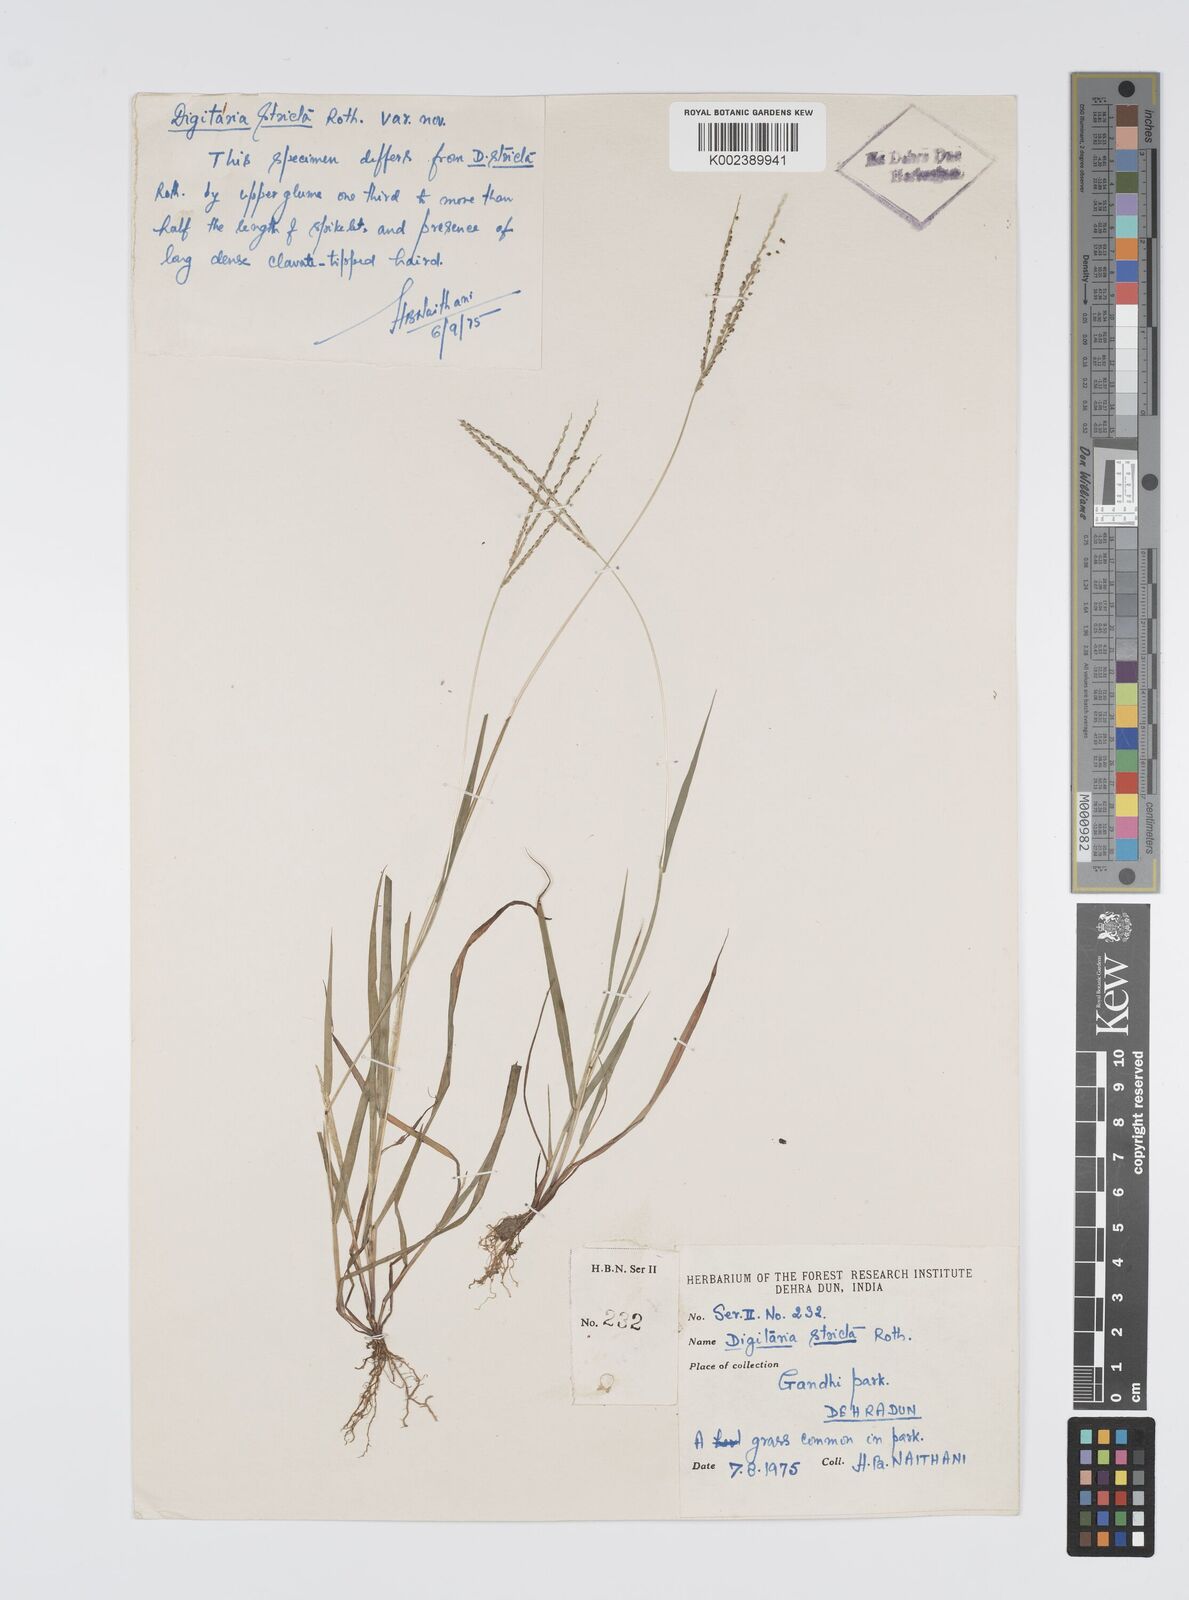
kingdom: Plantae
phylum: Tracheophyta
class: Liliopsida
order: Poales
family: Poaceae
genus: Digitaria
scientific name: Digitaria stricta
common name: Crabgrass
